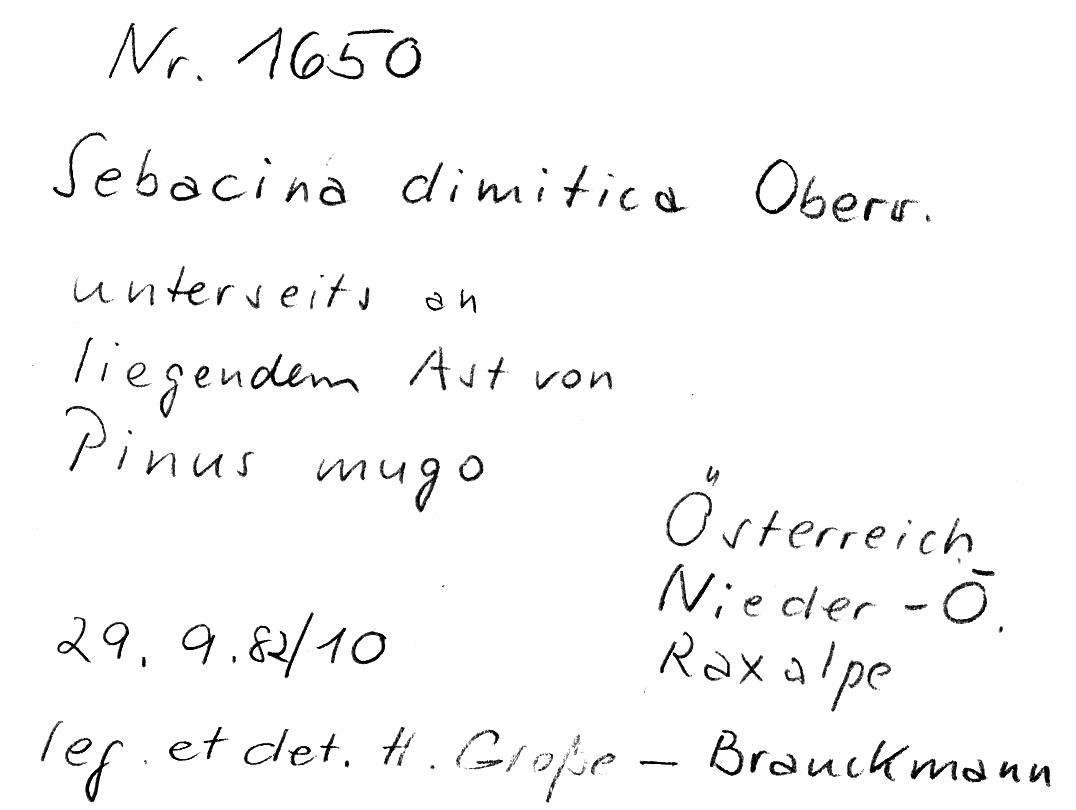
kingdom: Plantae
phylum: Tracheophyta
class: Pinopsida
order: Pinales
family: Pinaceae
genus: Pinus
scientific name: Pinus mugo
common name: Mugo pine
